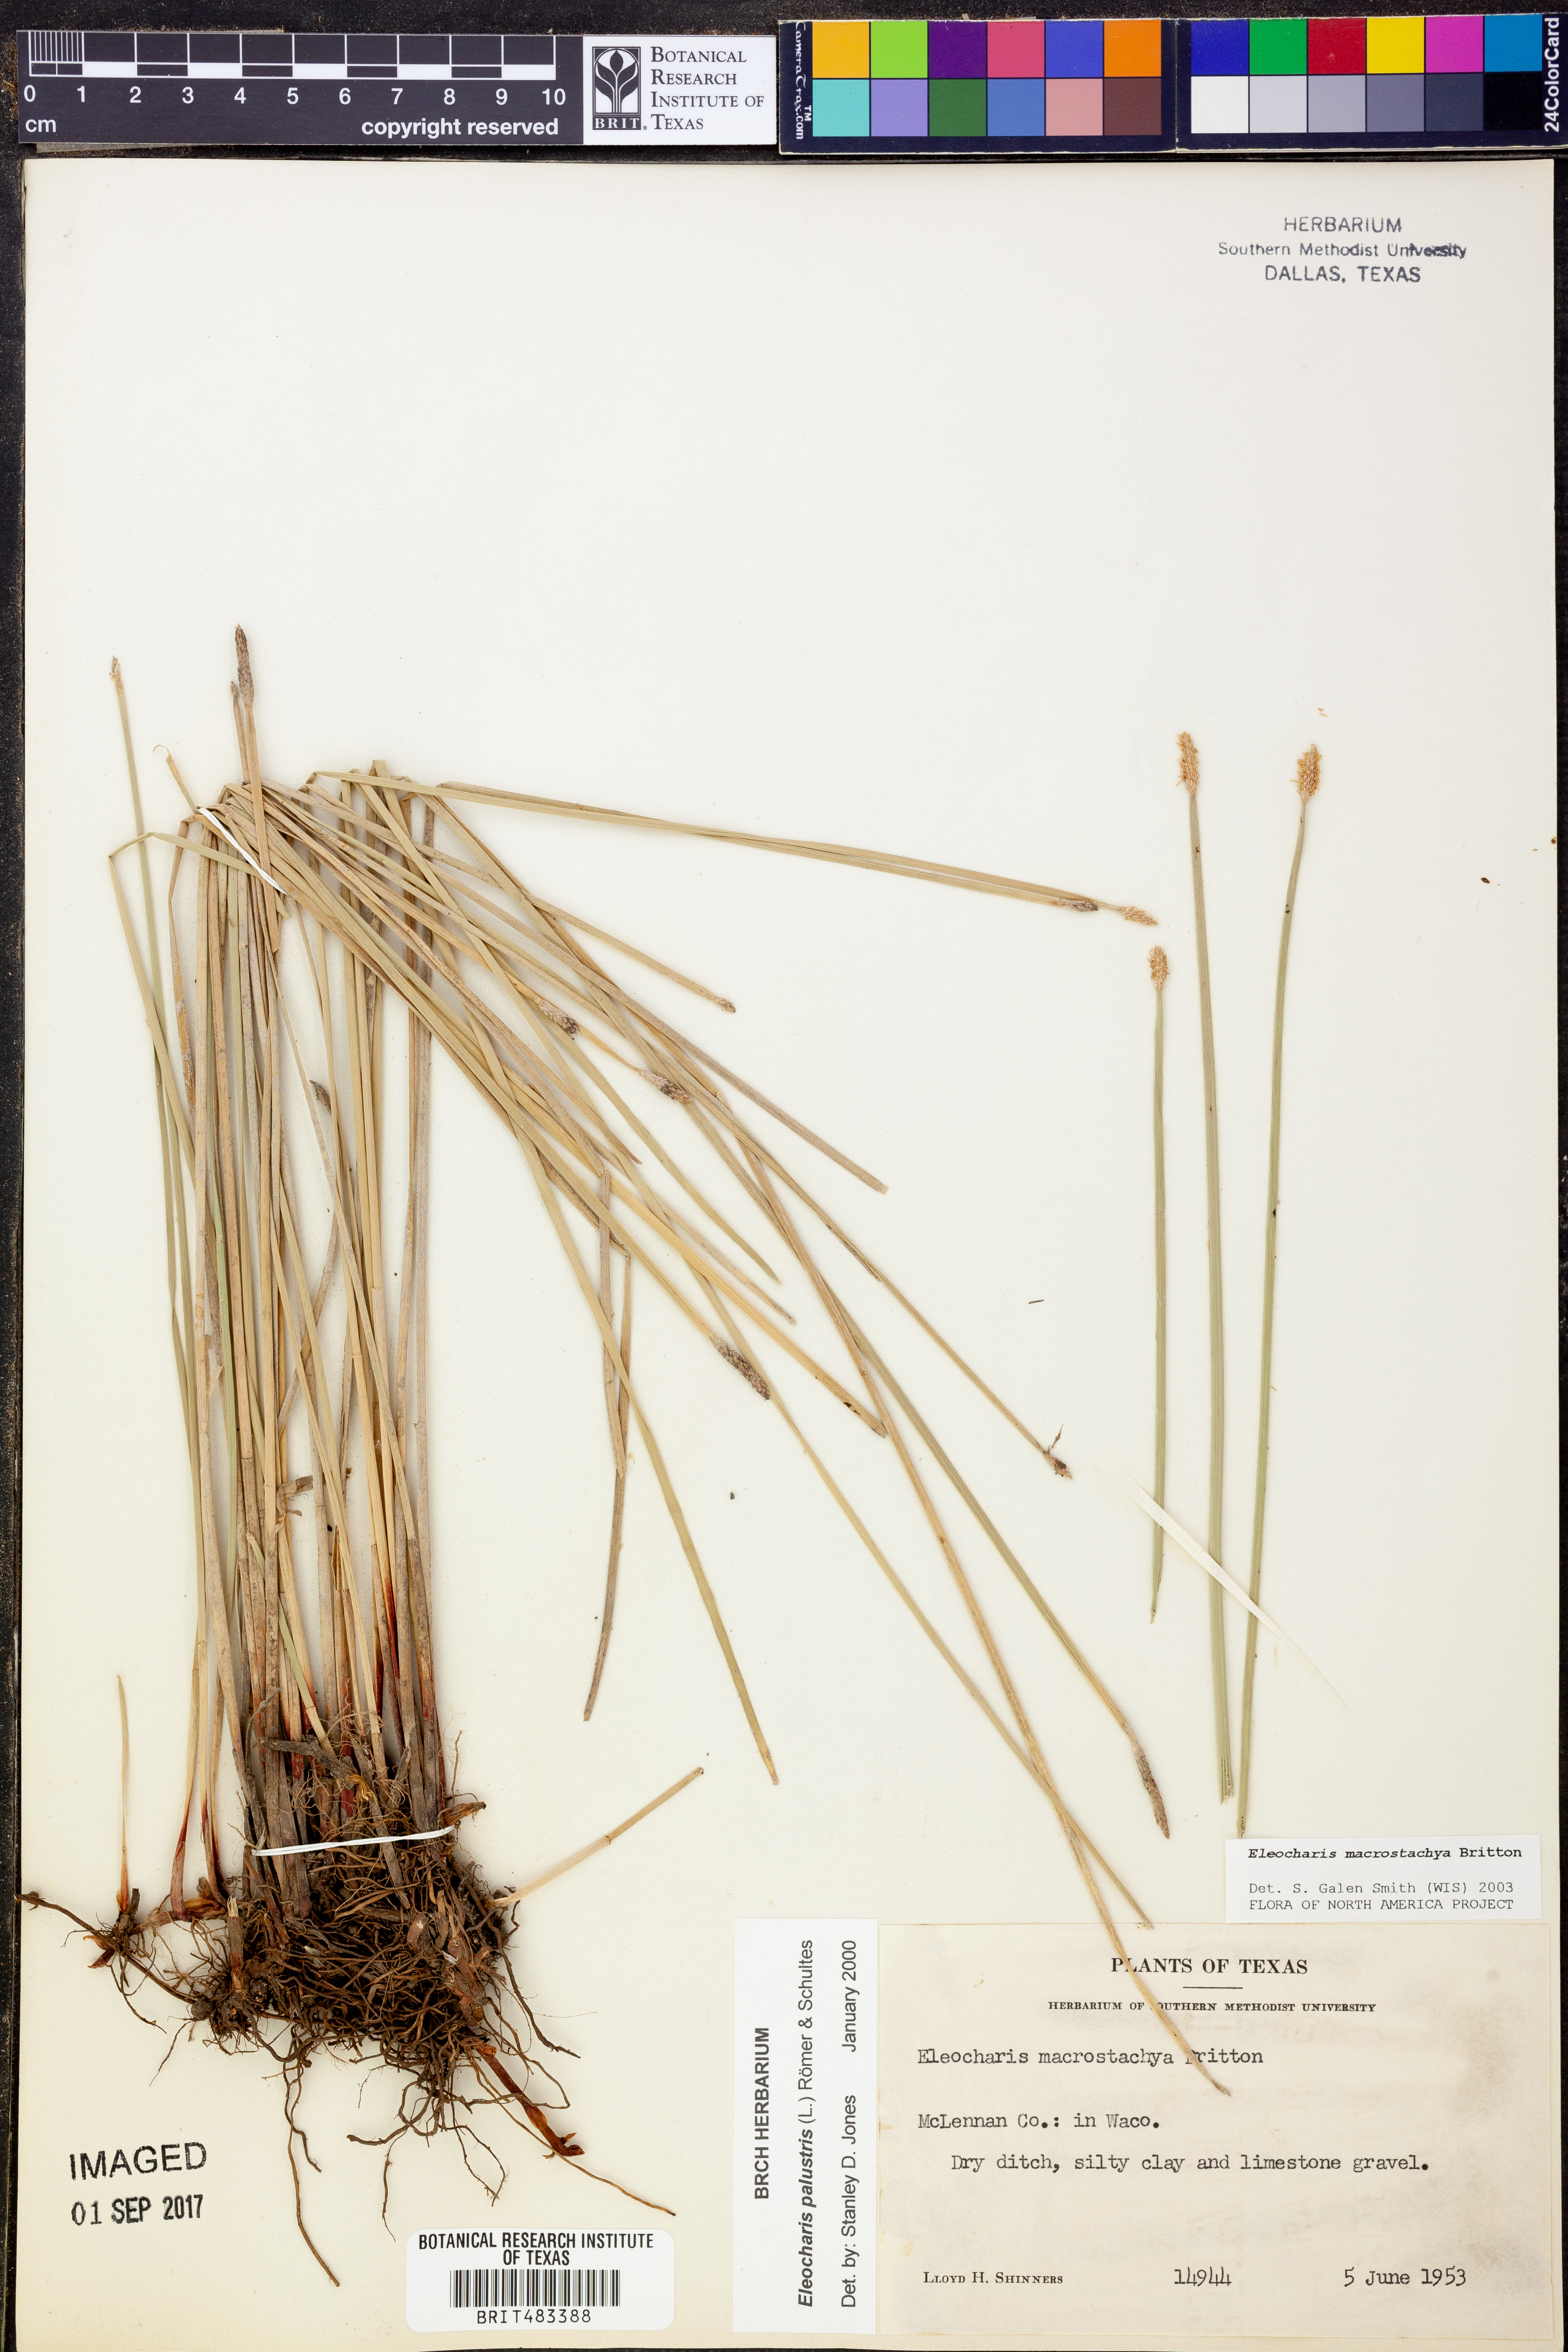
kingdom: Plantae
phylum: Tracheophyta
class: Liliopsida
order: Poales
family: Cyperaceae
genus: Eleocharis
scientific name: Eleocharis macrostachya
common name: Pale spikerush
